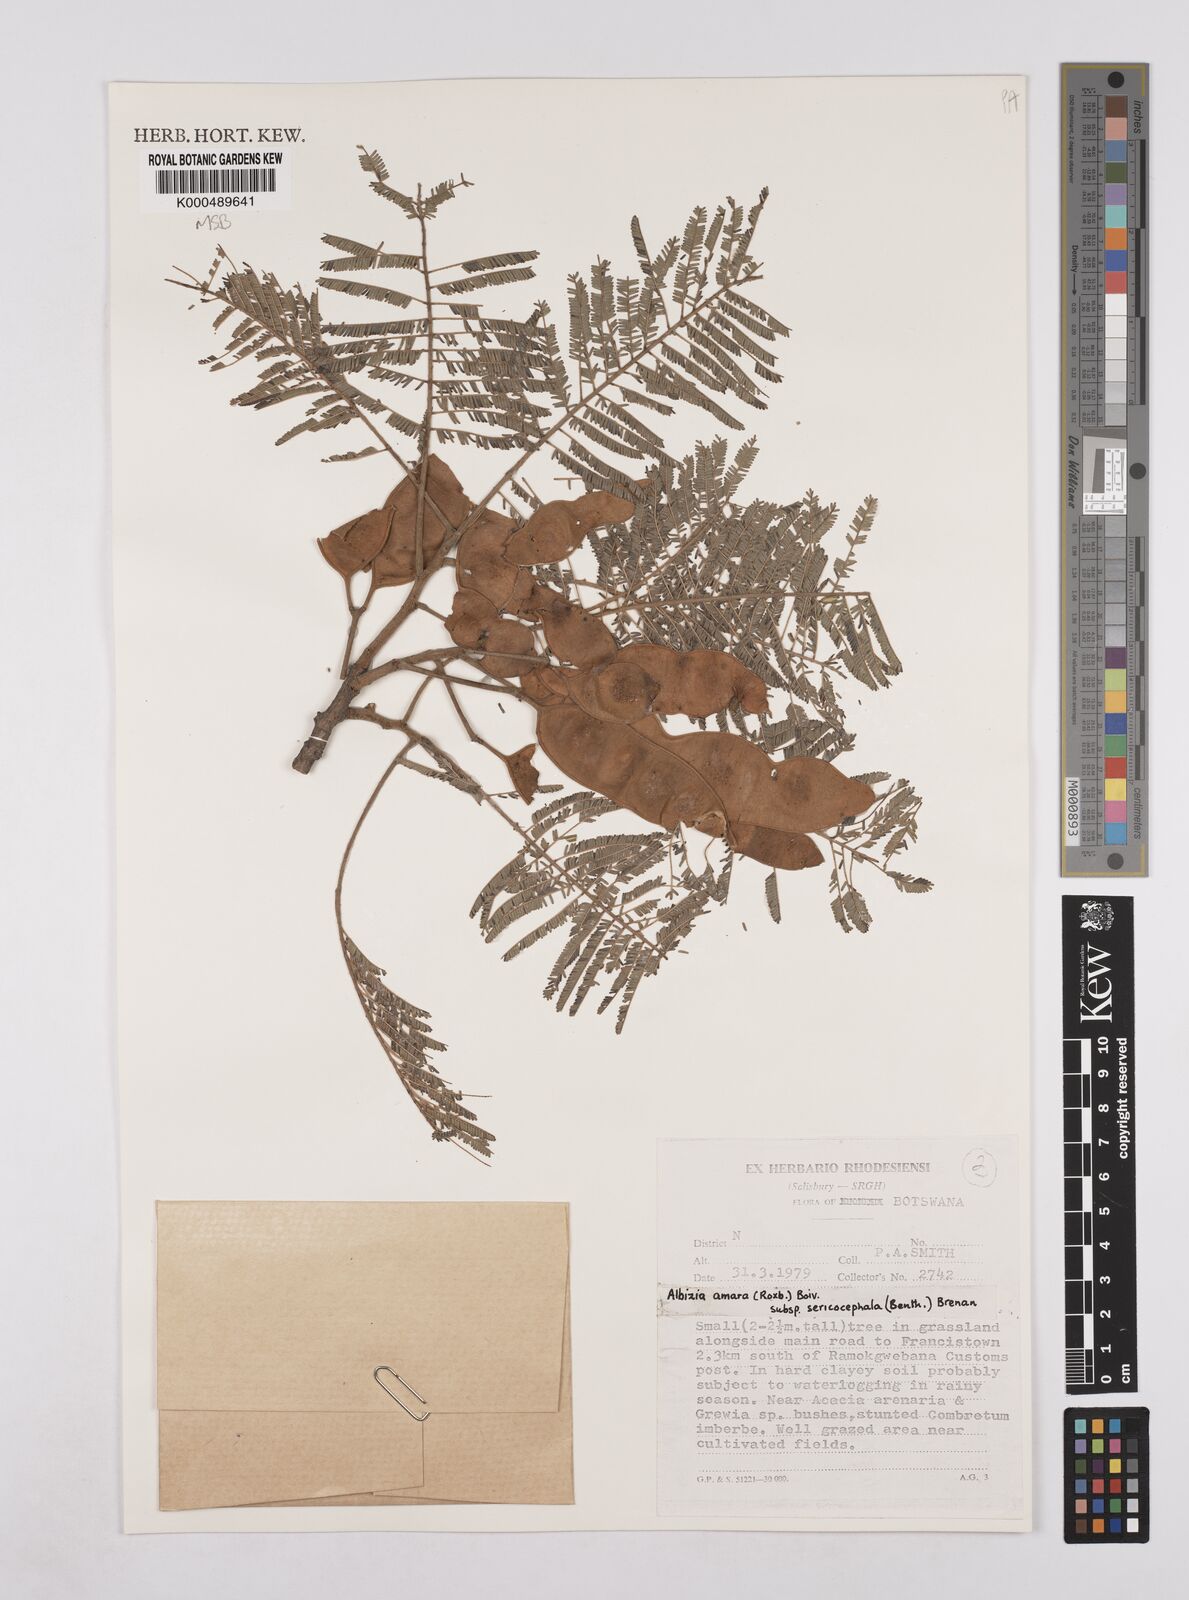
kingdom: Plantae
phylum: Tracheophyta
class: Magnoliopsida
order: Fabales
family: Fabaceae
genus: Albizia
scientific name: Albizia amara
